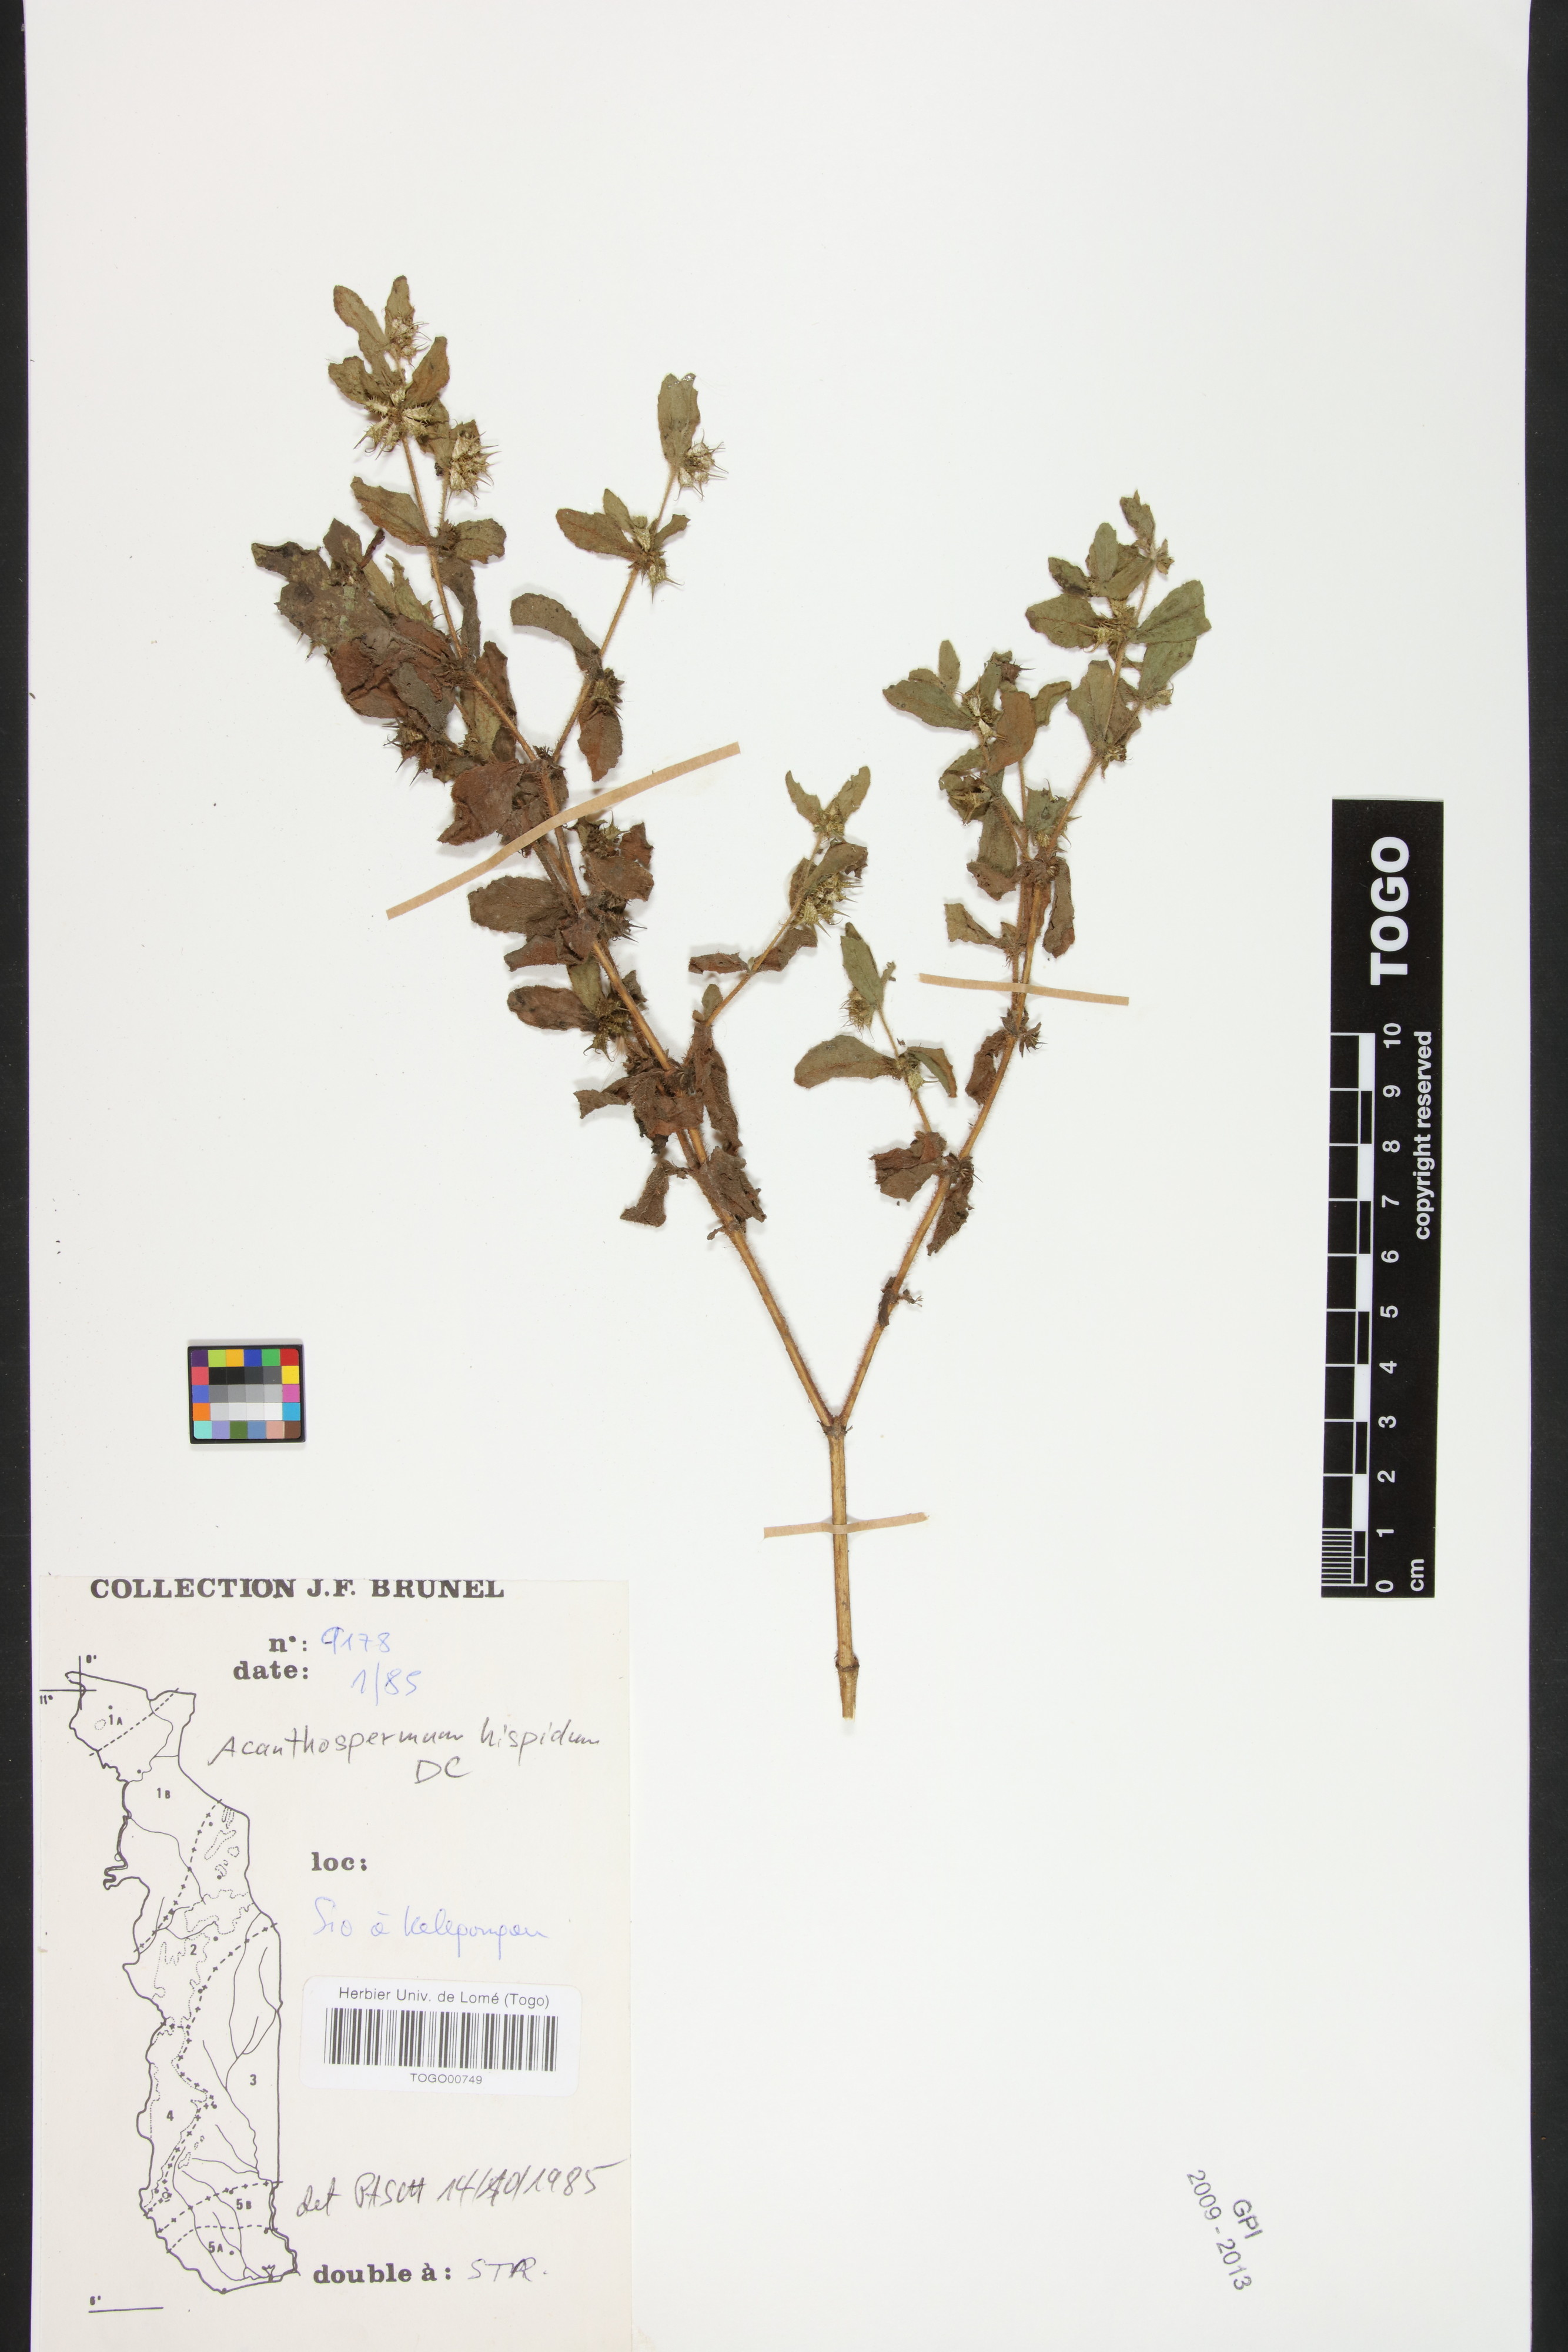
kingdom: Plantae
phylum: Tracheophyta
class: Magnoliopsida
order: Asterales
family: Asteraceae
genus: Acanthospermum
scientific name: Acanthospermum hispidum
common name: Hispid starbur
